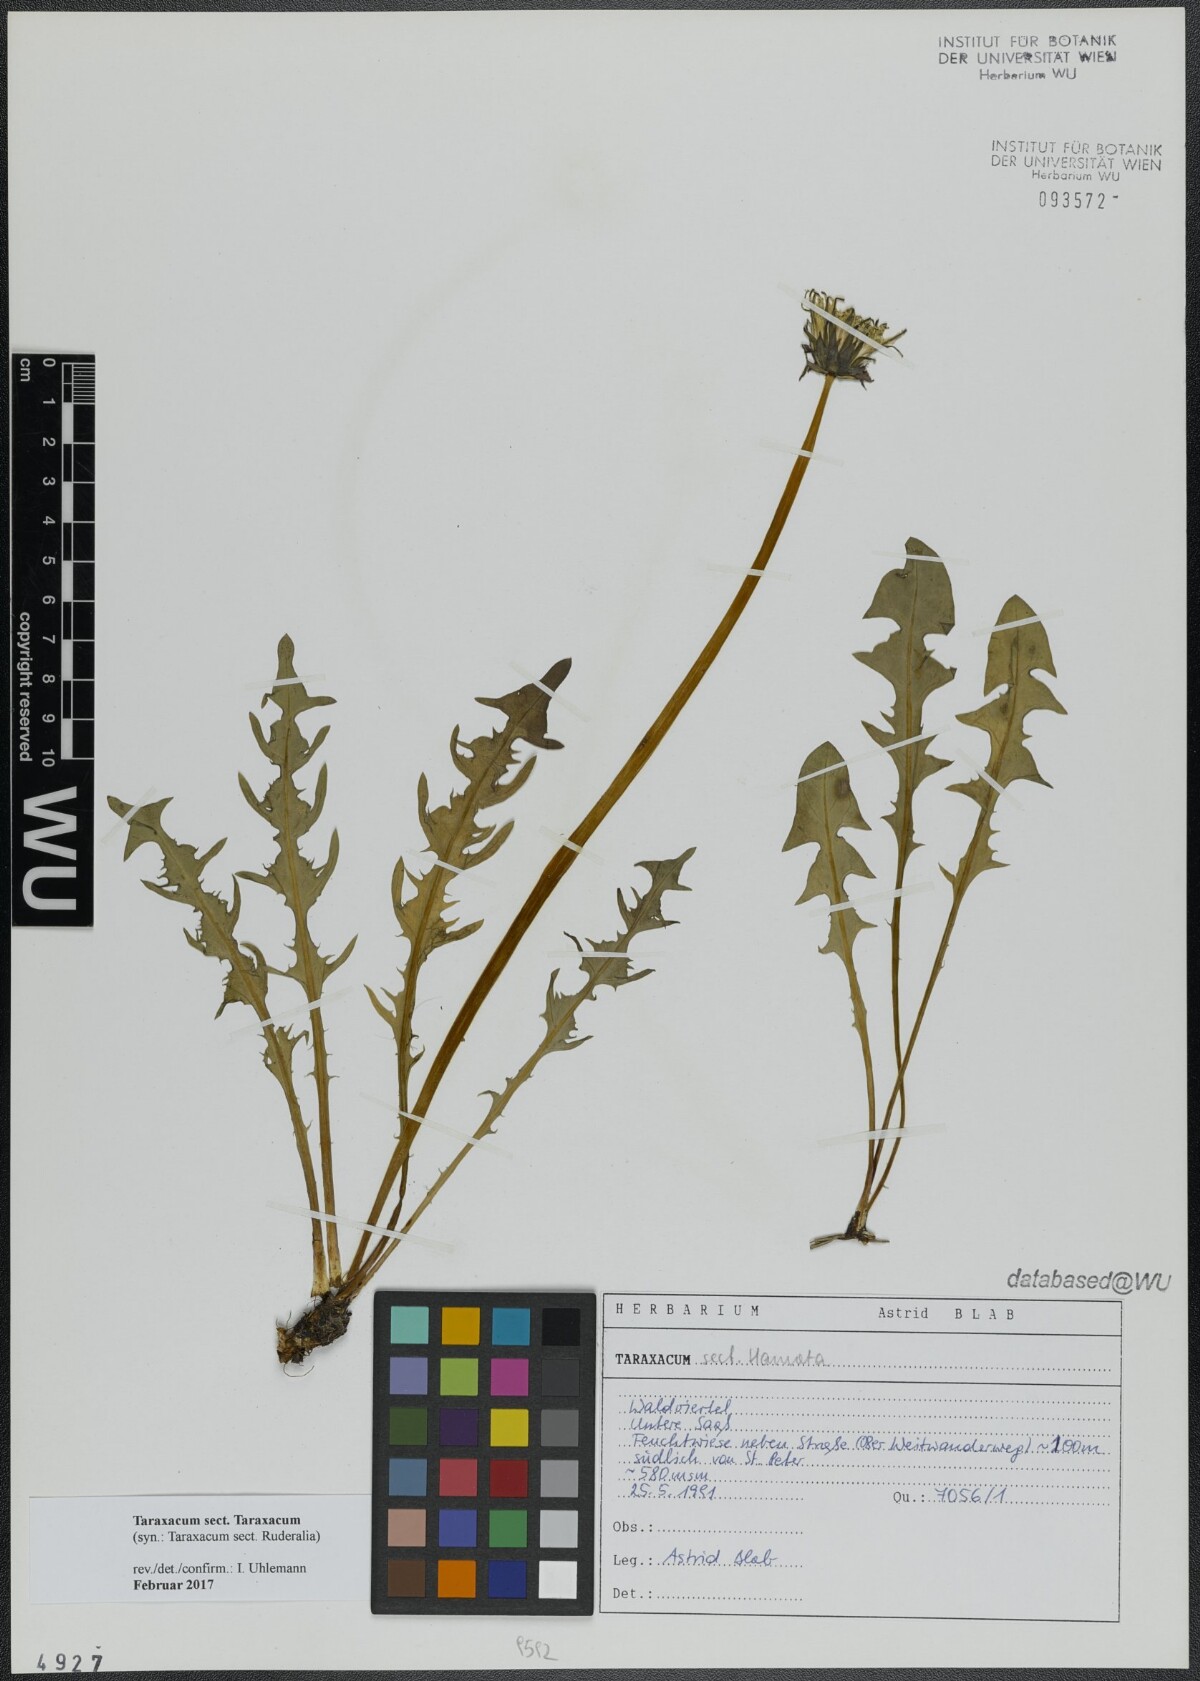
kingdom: Plantae
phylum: Tracheophyta
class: Magnoliopsida
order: Asterales
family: Asteraceae
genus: Taraxacum
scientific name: Taraxacum
